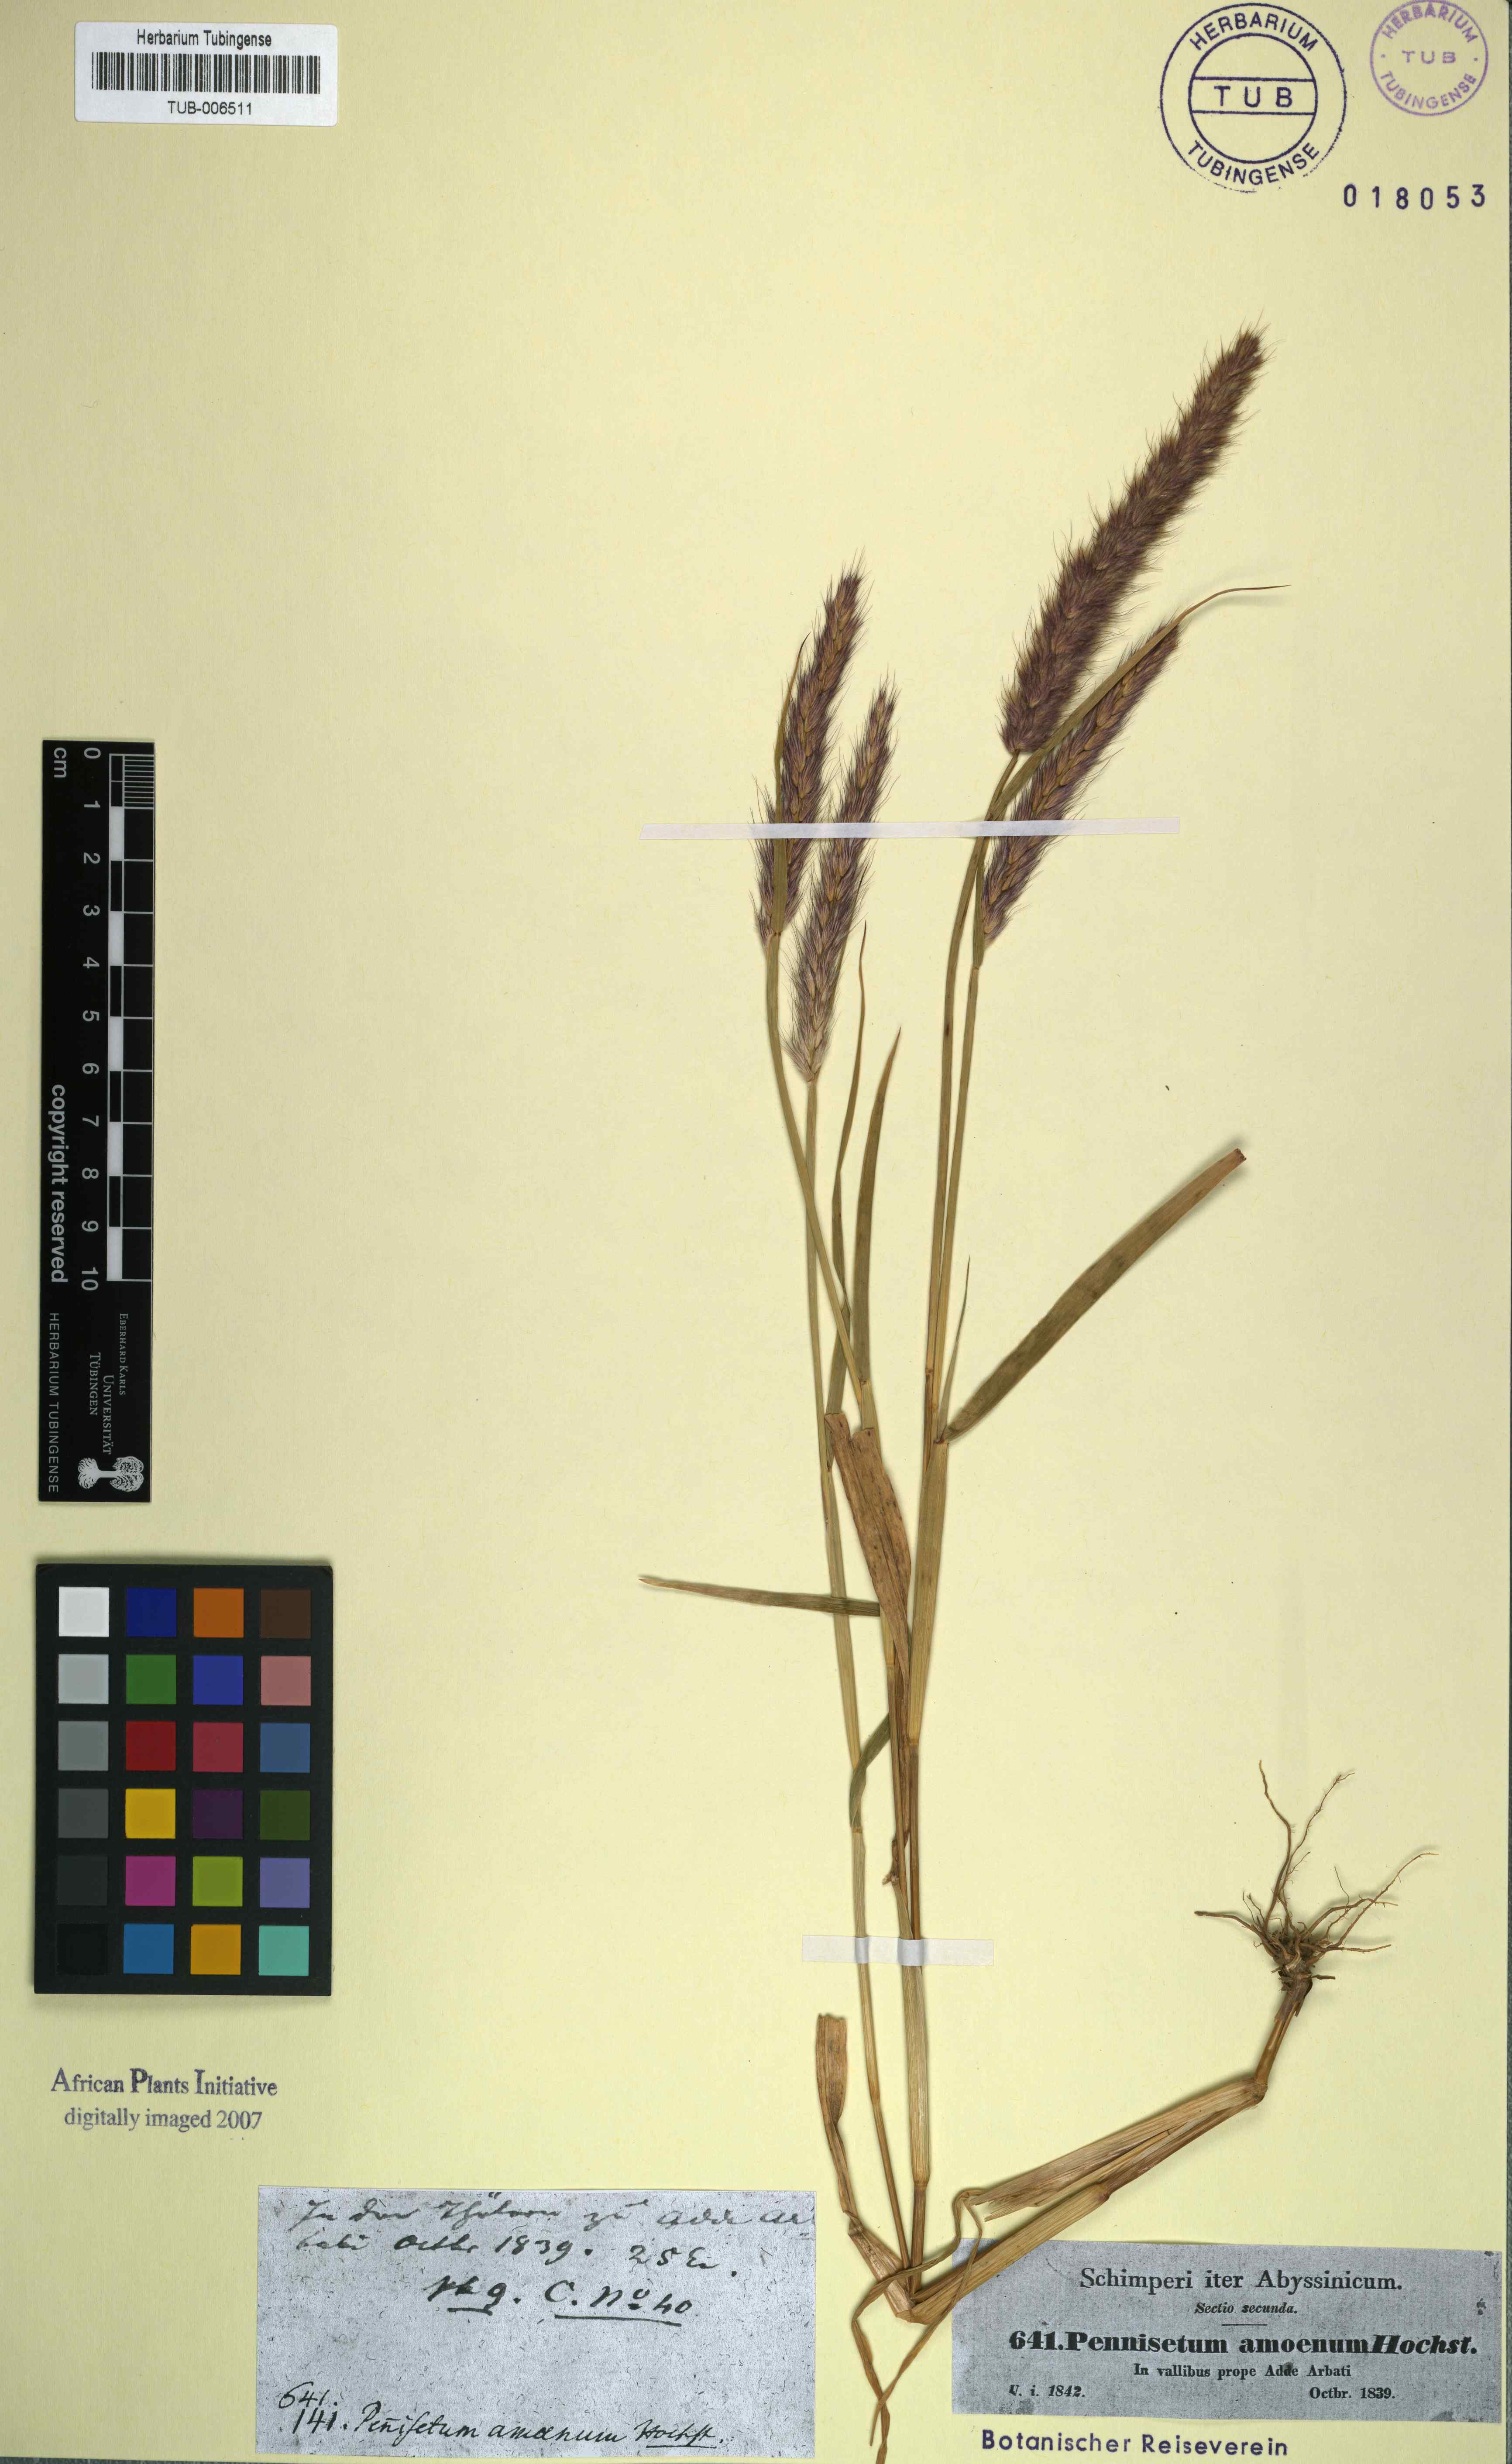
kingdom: Plantae
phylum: Tracheophyta
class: Liliopsida
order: Poales
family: Poaceae
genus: Cenchrus
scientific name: Cenchrus pedicellatus
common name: Hairy fountain grass
